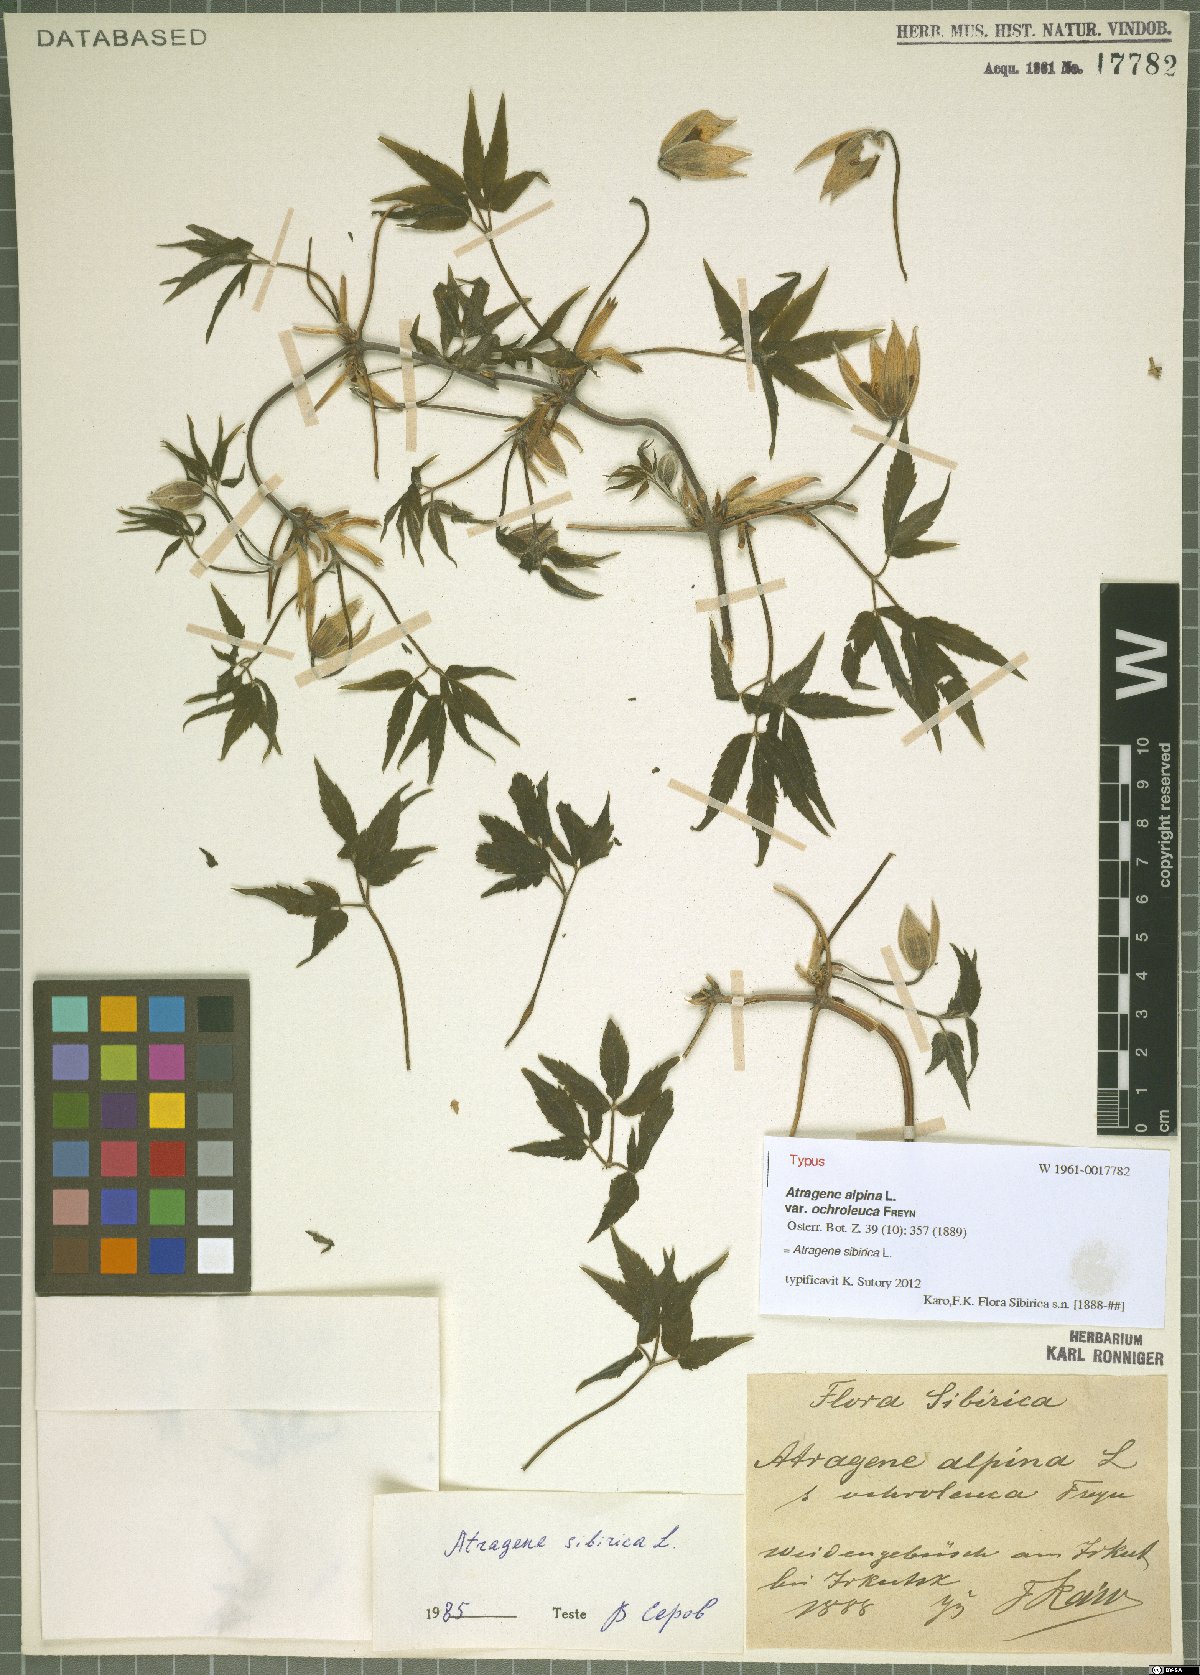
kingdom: Plantae
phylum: Tracheophyta
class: Magnoliopsida
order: Ranunculales
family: Ranunculaceae
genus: Clematis
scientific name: Clematis sibirica
